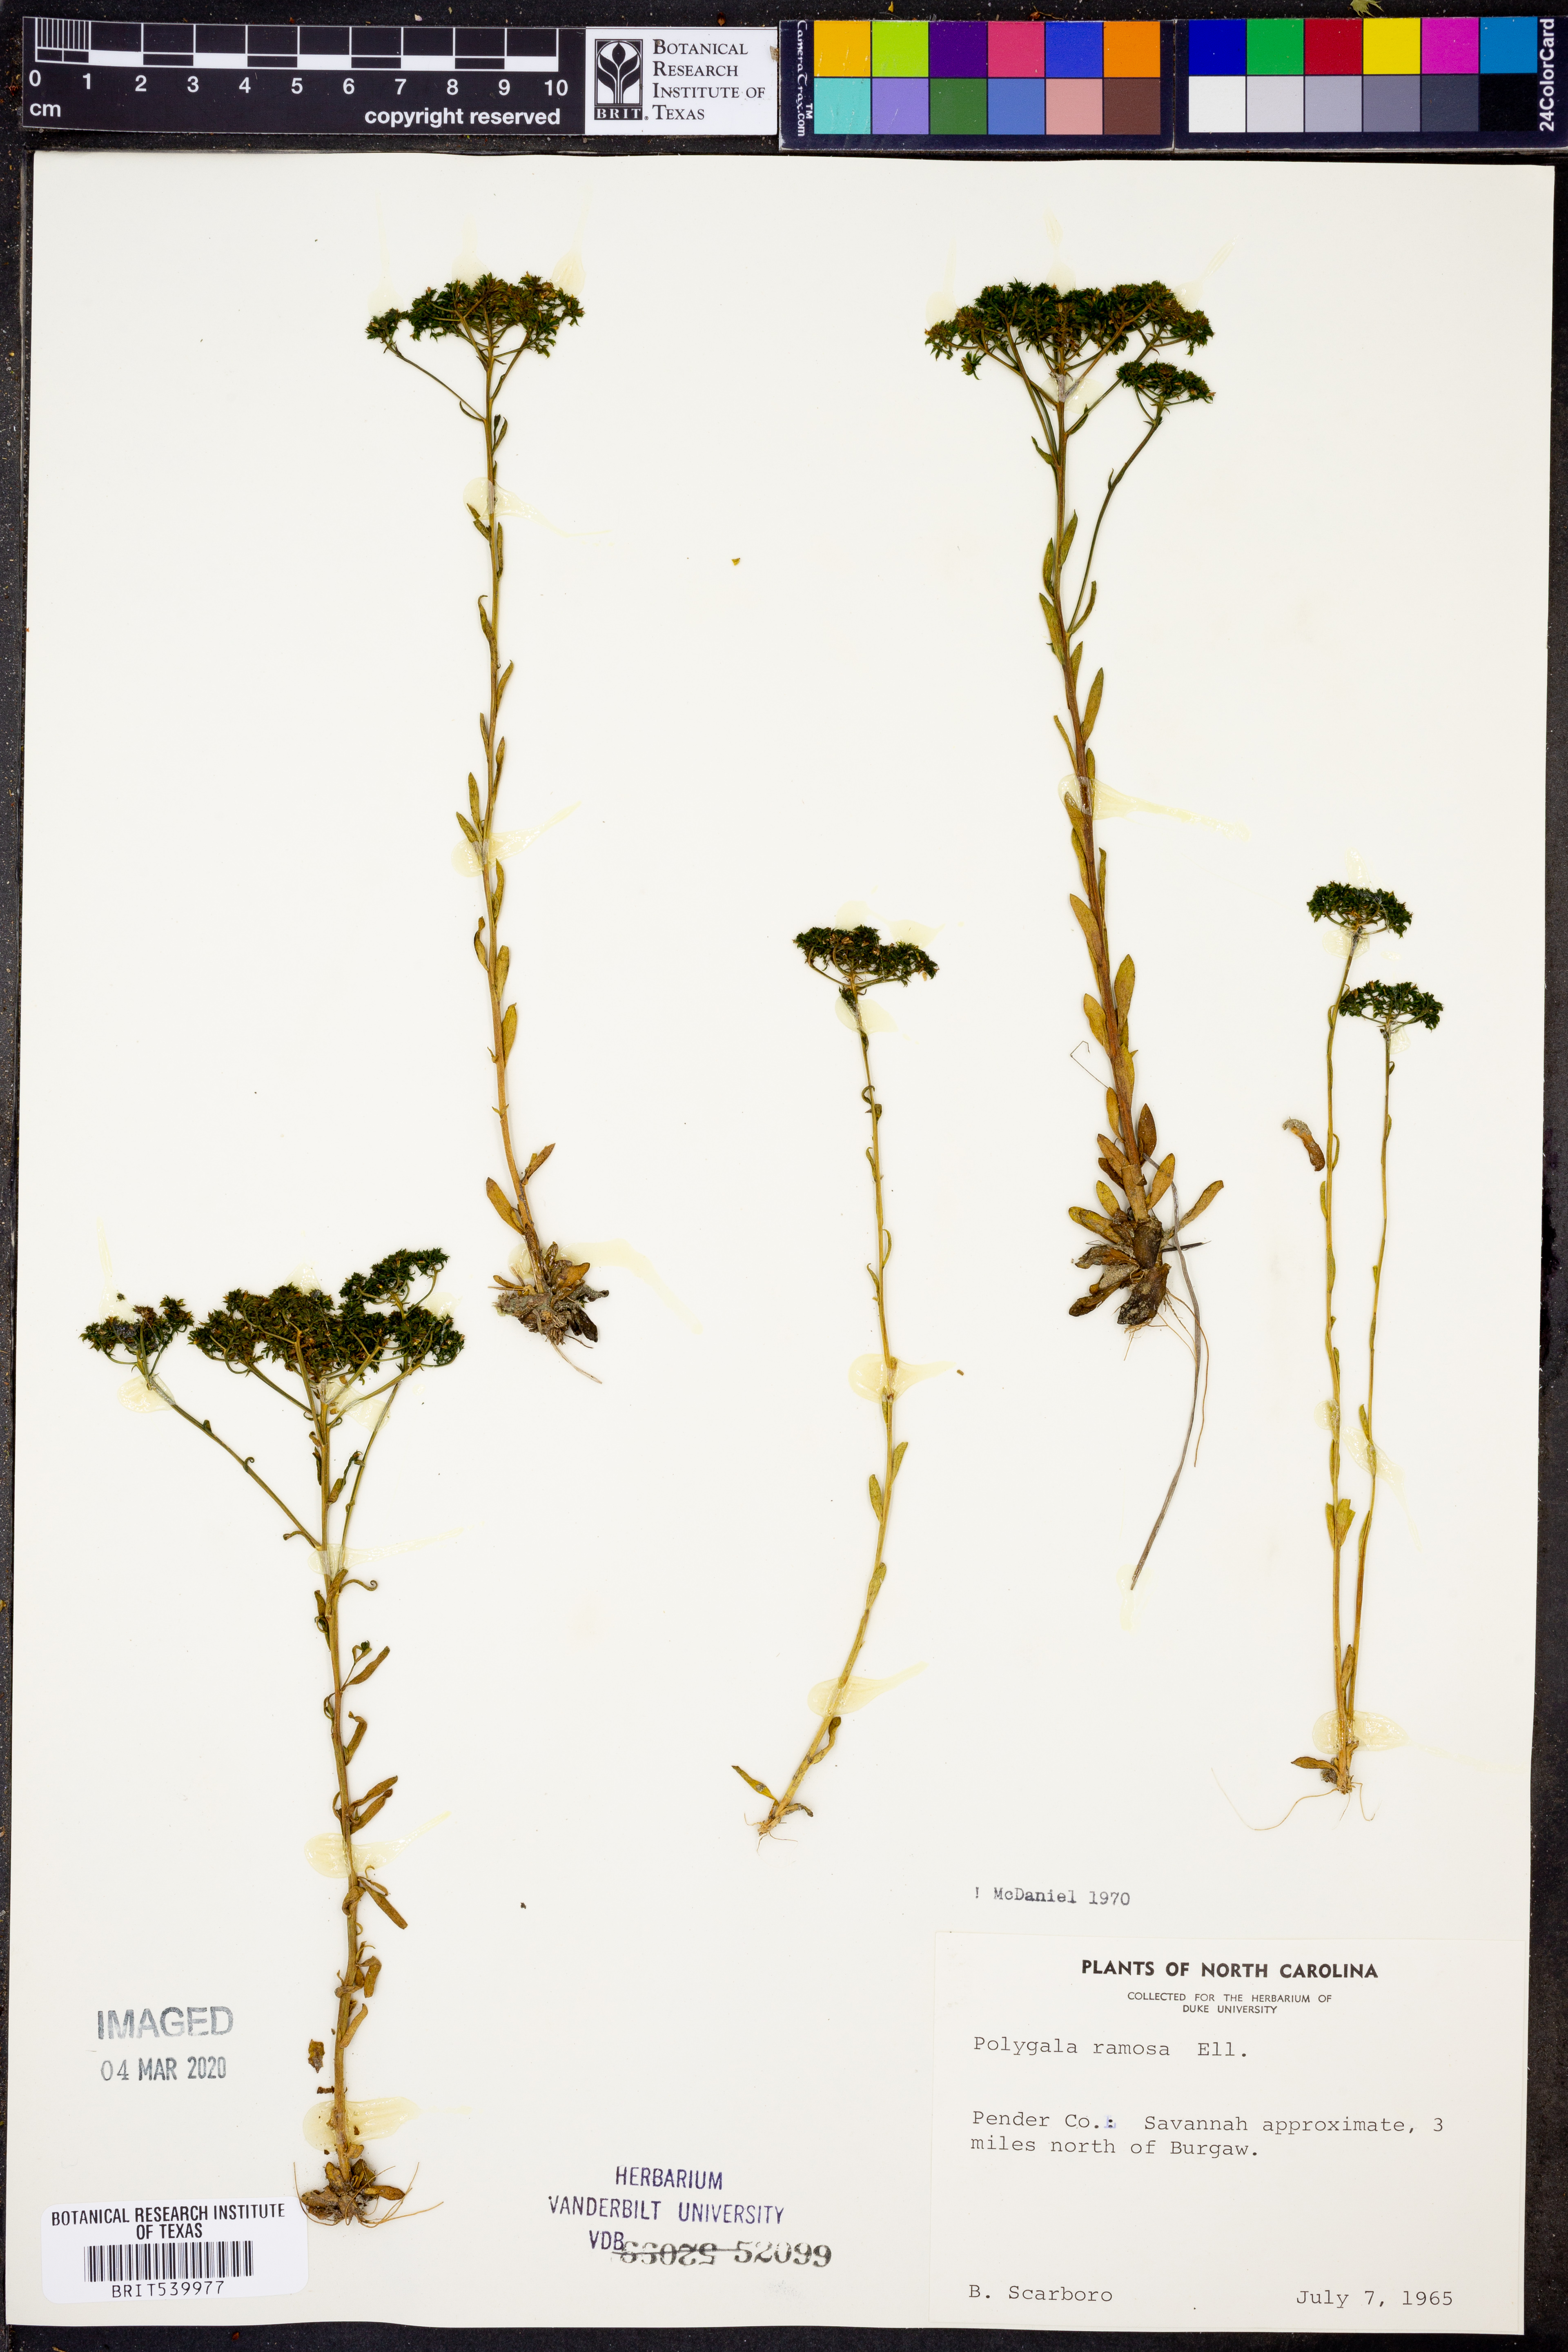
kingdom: Plantae
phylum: Tracheophyta
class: Magnoliopsida
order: Fabales
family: Polygalaceae
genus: Polygala
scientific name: Polygala ramosa
